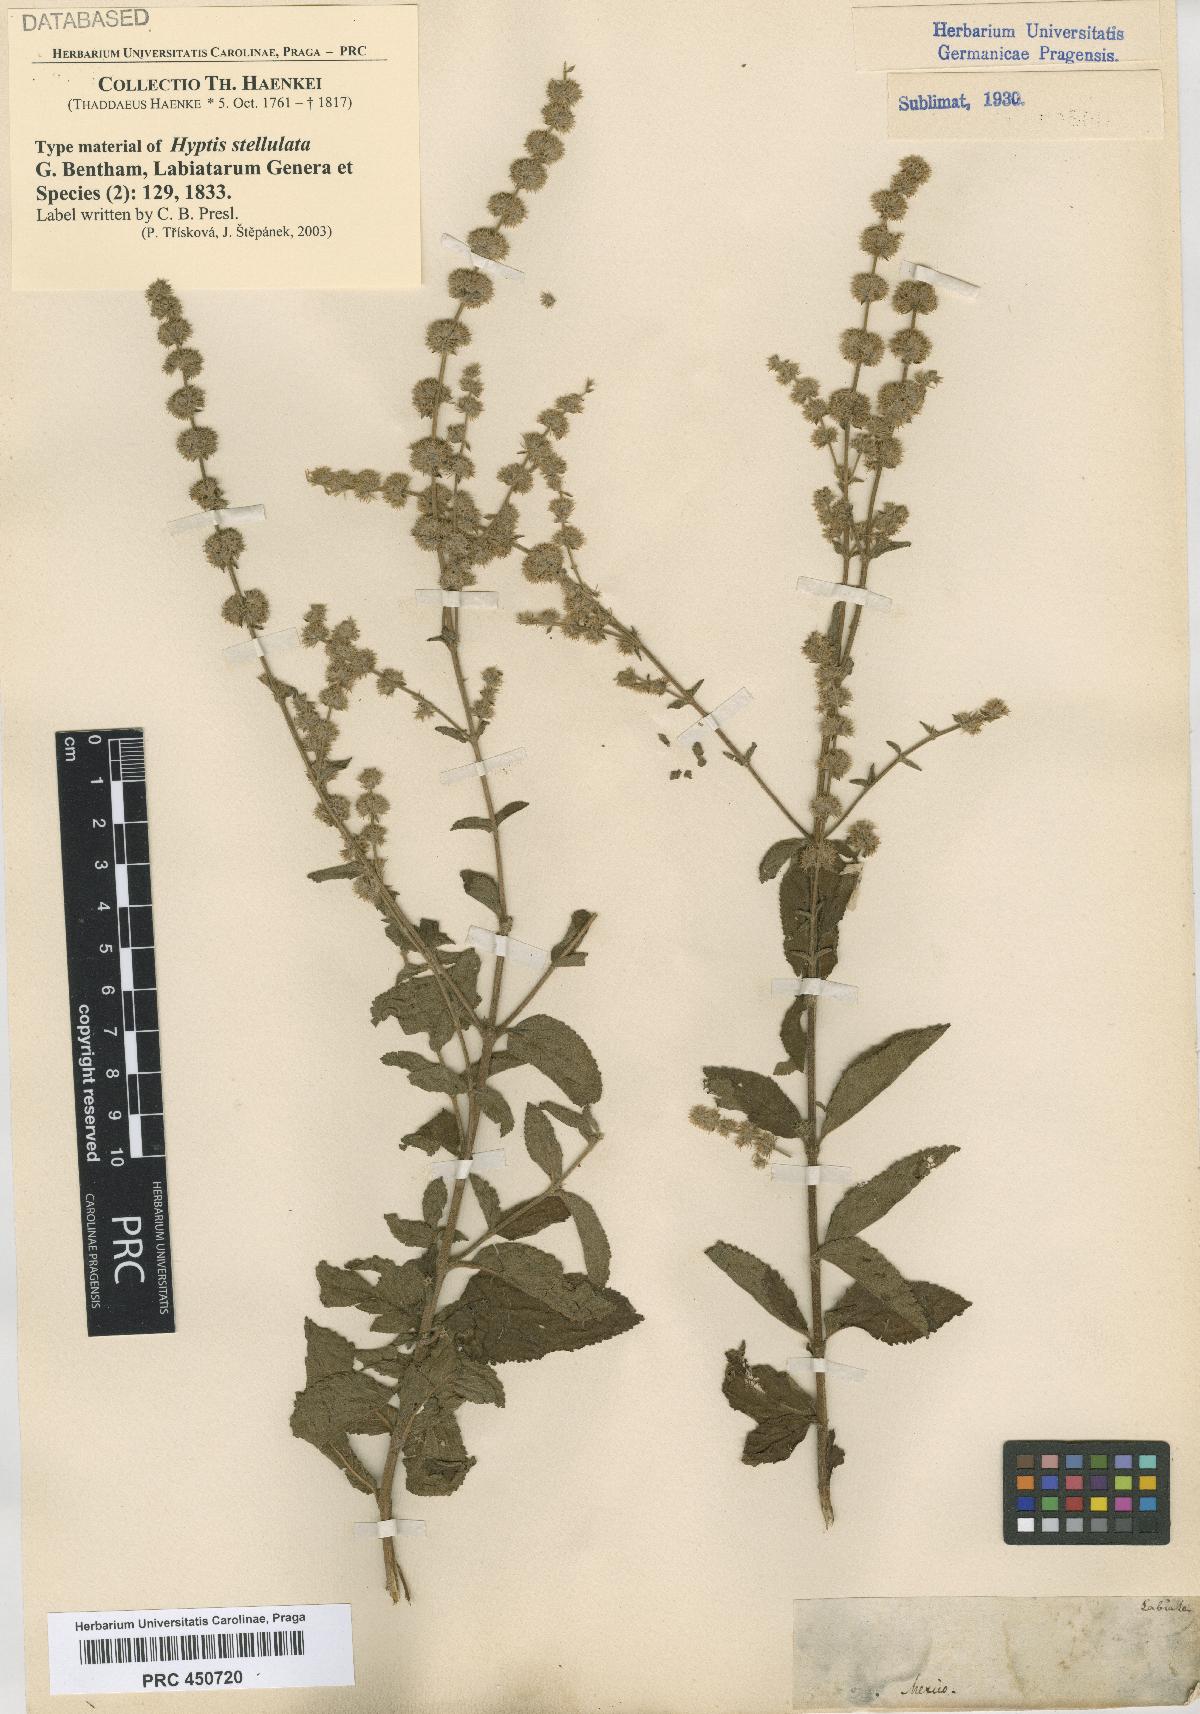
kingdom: Plantae
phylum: Tracheophyta
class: Magnoliopsida
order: Lamiales
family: Lamiaceae
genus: Asterohyptis
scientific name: Asterohyptis stellulata
